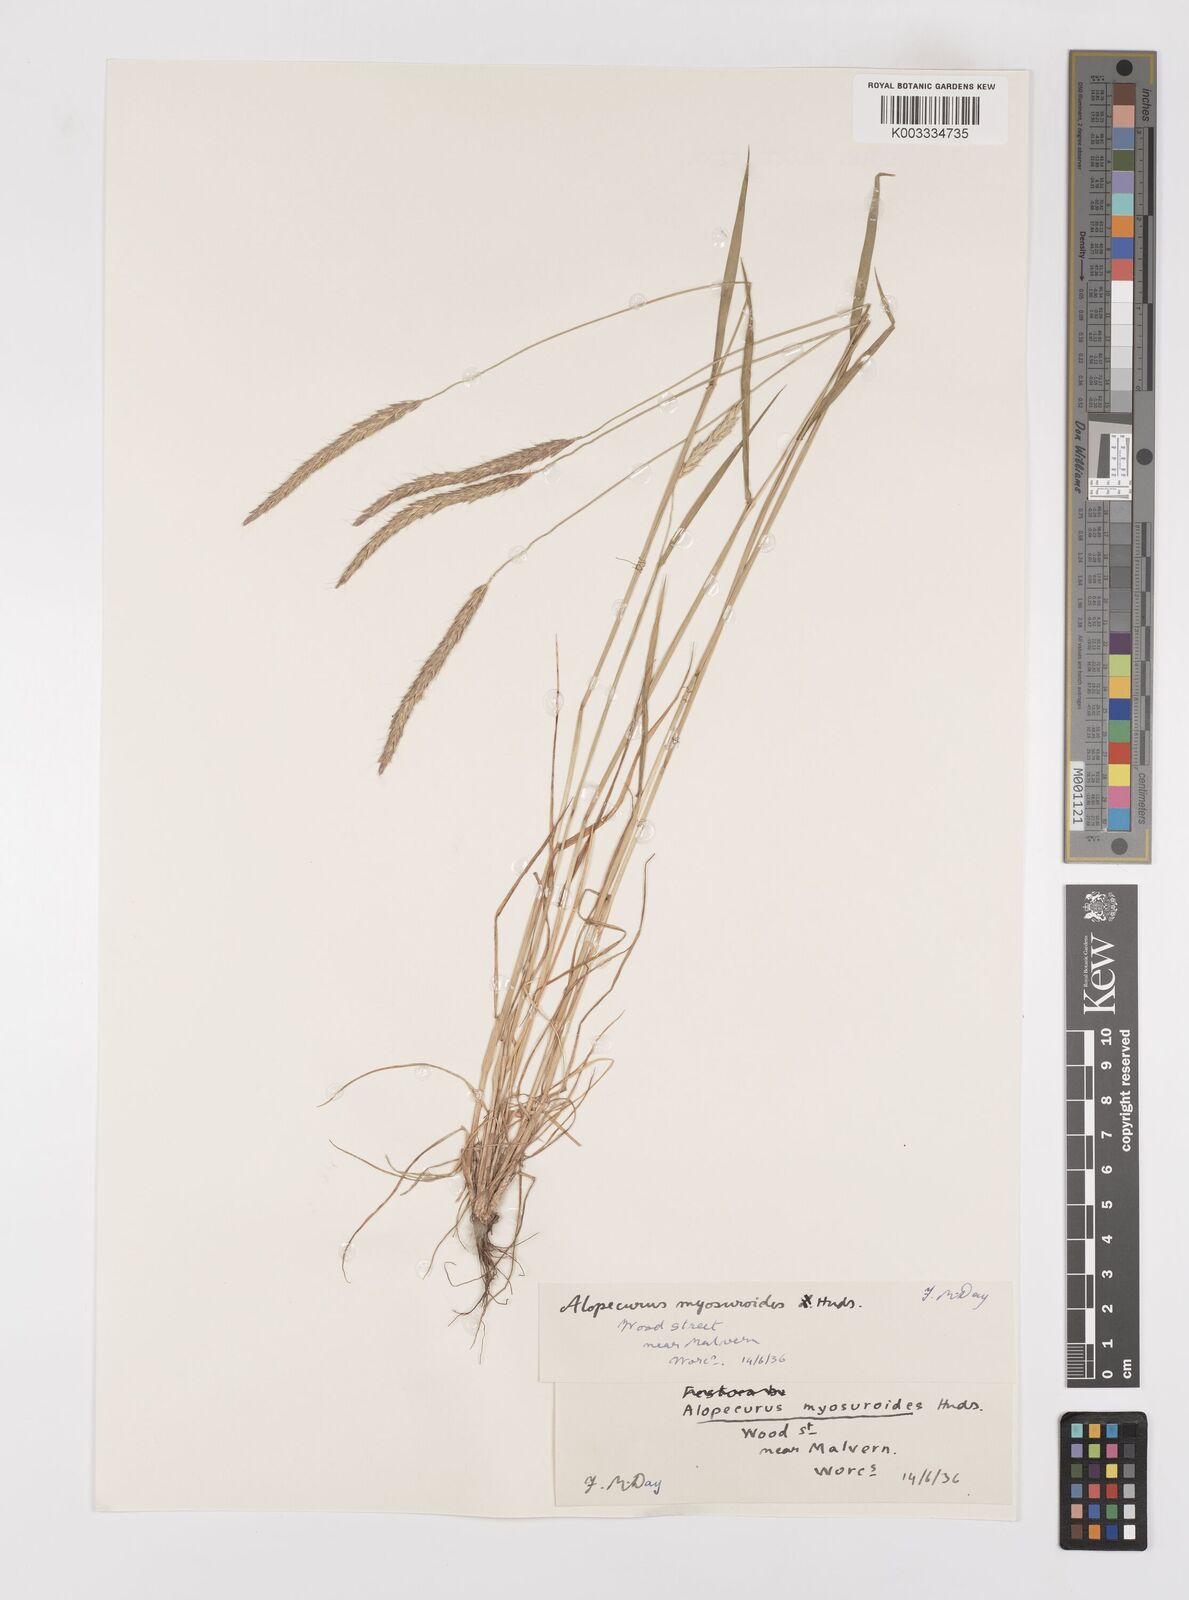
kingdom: Plantae
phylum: Tracheophyta
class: Liliopsida
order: Poales
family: Poaceae
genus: Alopecurus
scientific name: Alopecurus myosuroides
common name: Black-grass
